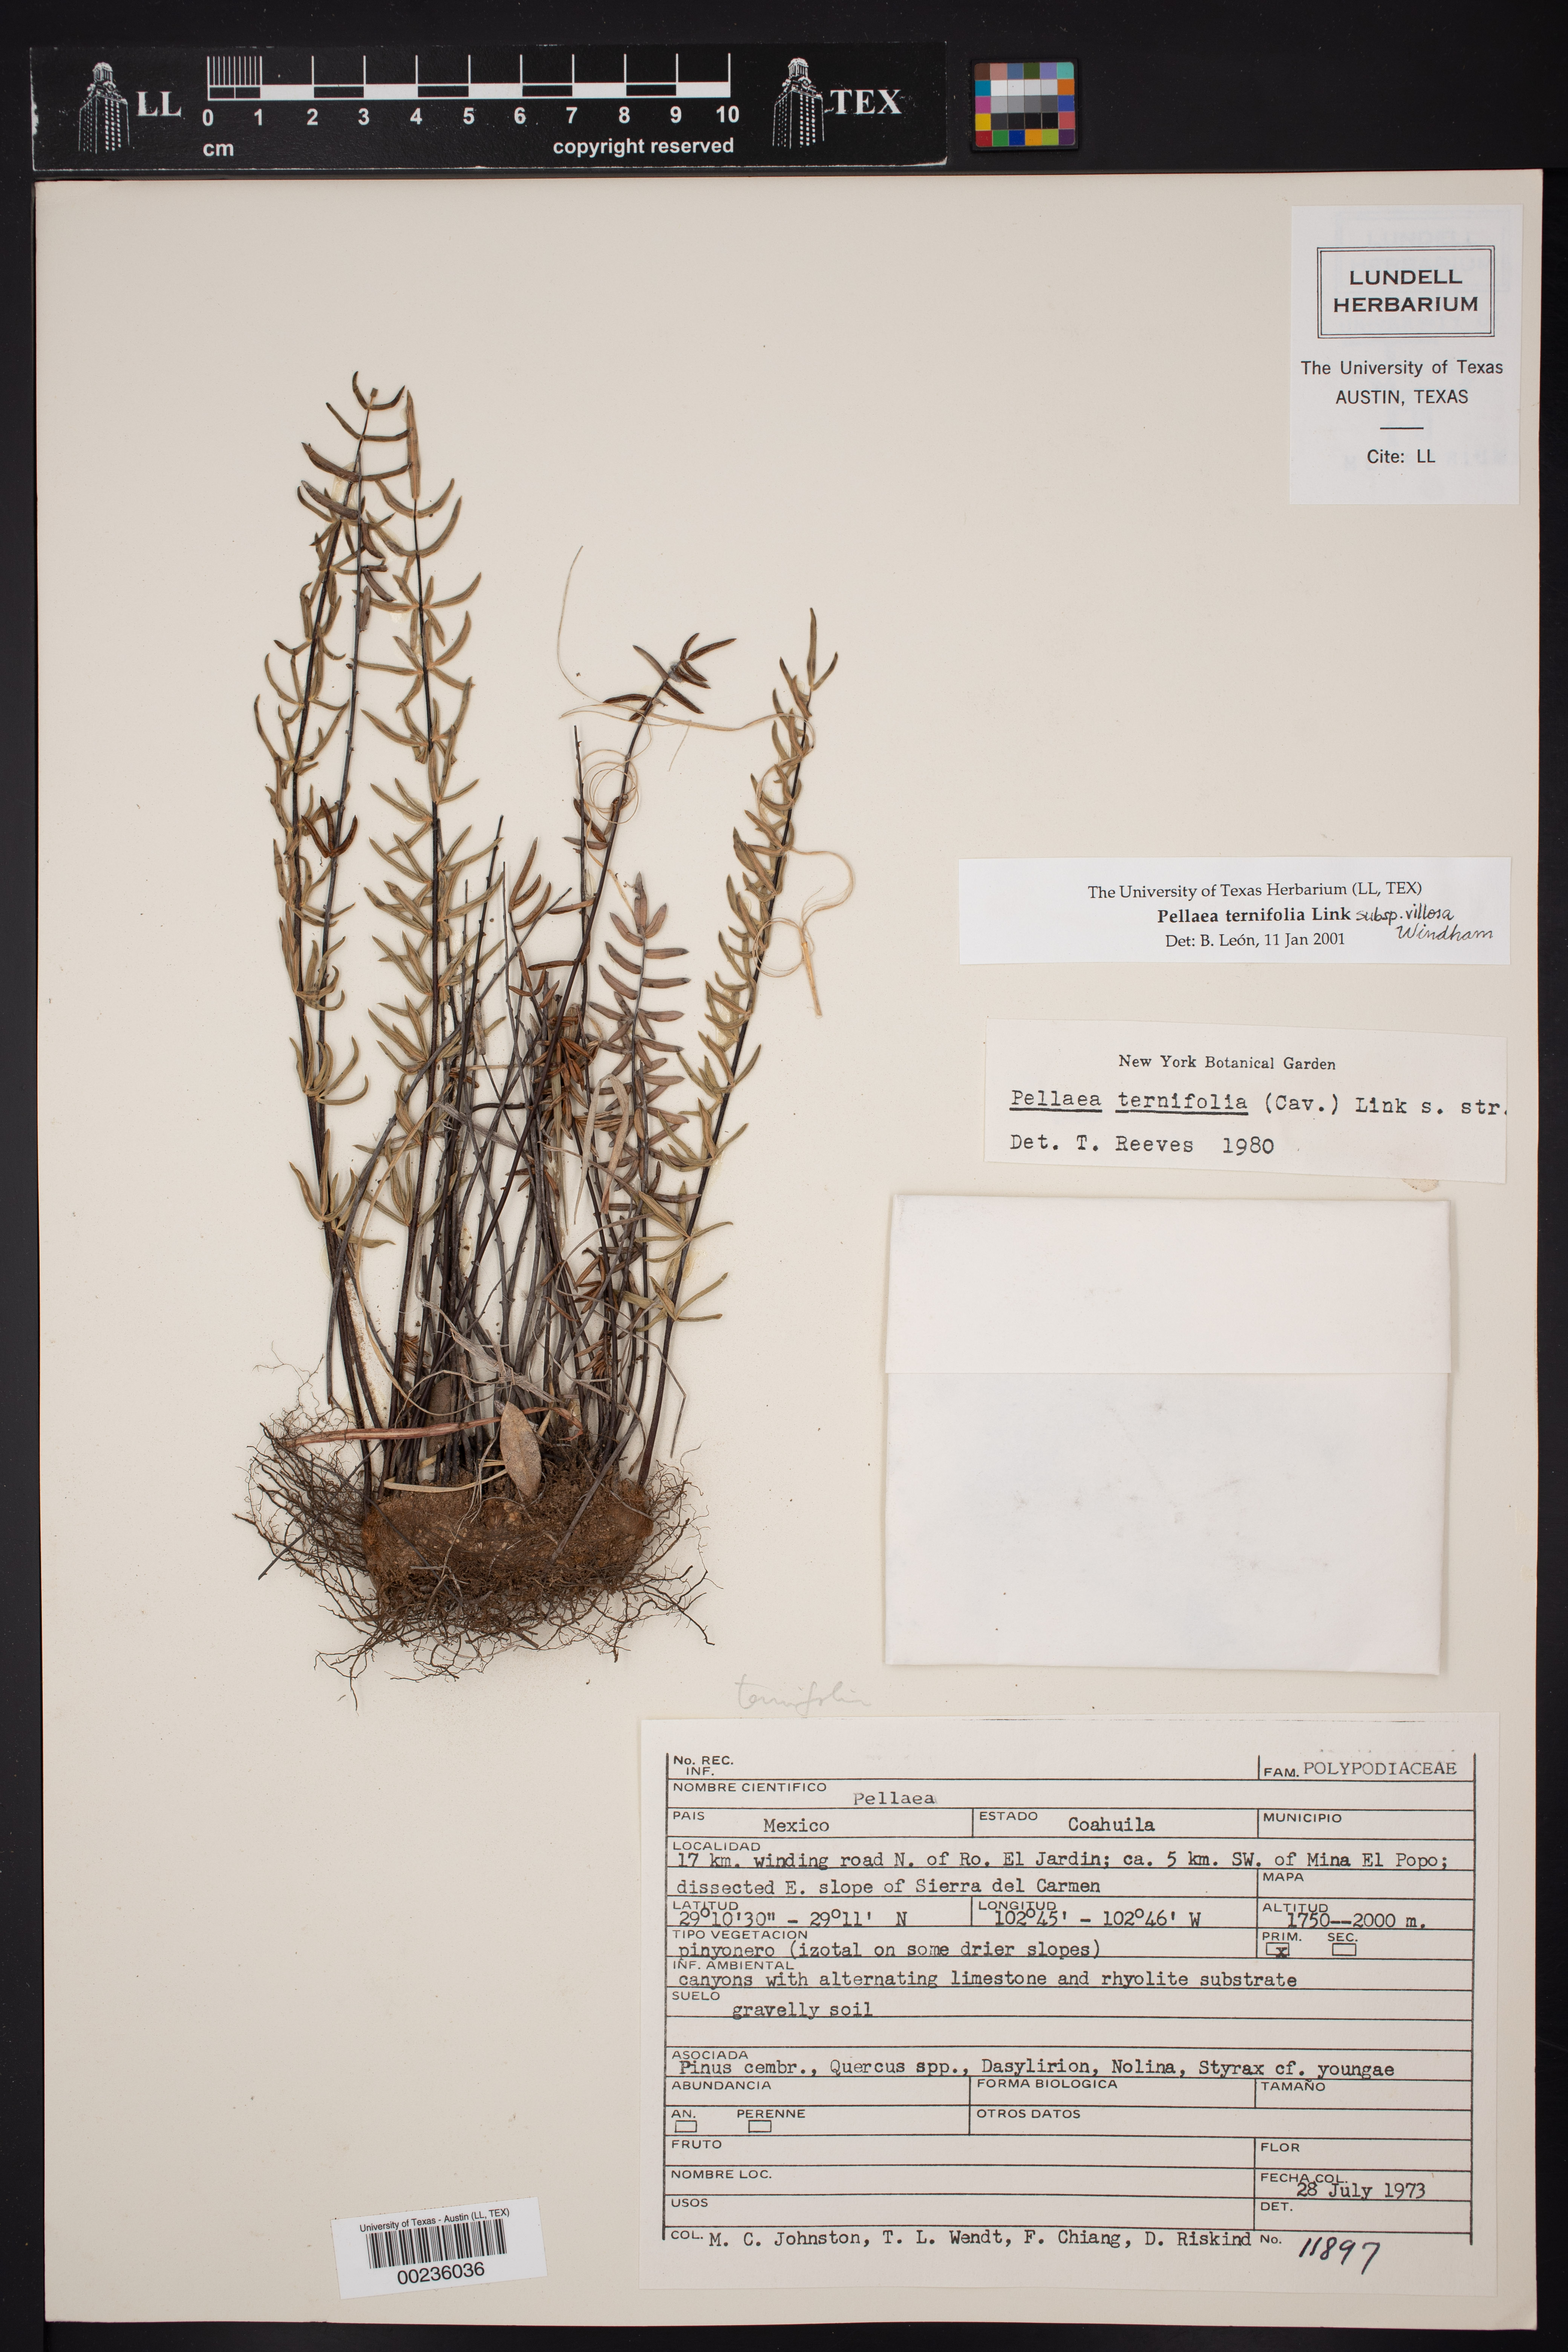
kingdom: Plantae
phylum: Tracheophyta
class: Polypodiopsida
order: Polypodiales
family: Pteridaceae
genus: Pellaea
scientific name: Pellaea villosa
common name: Villose cliffbrake
